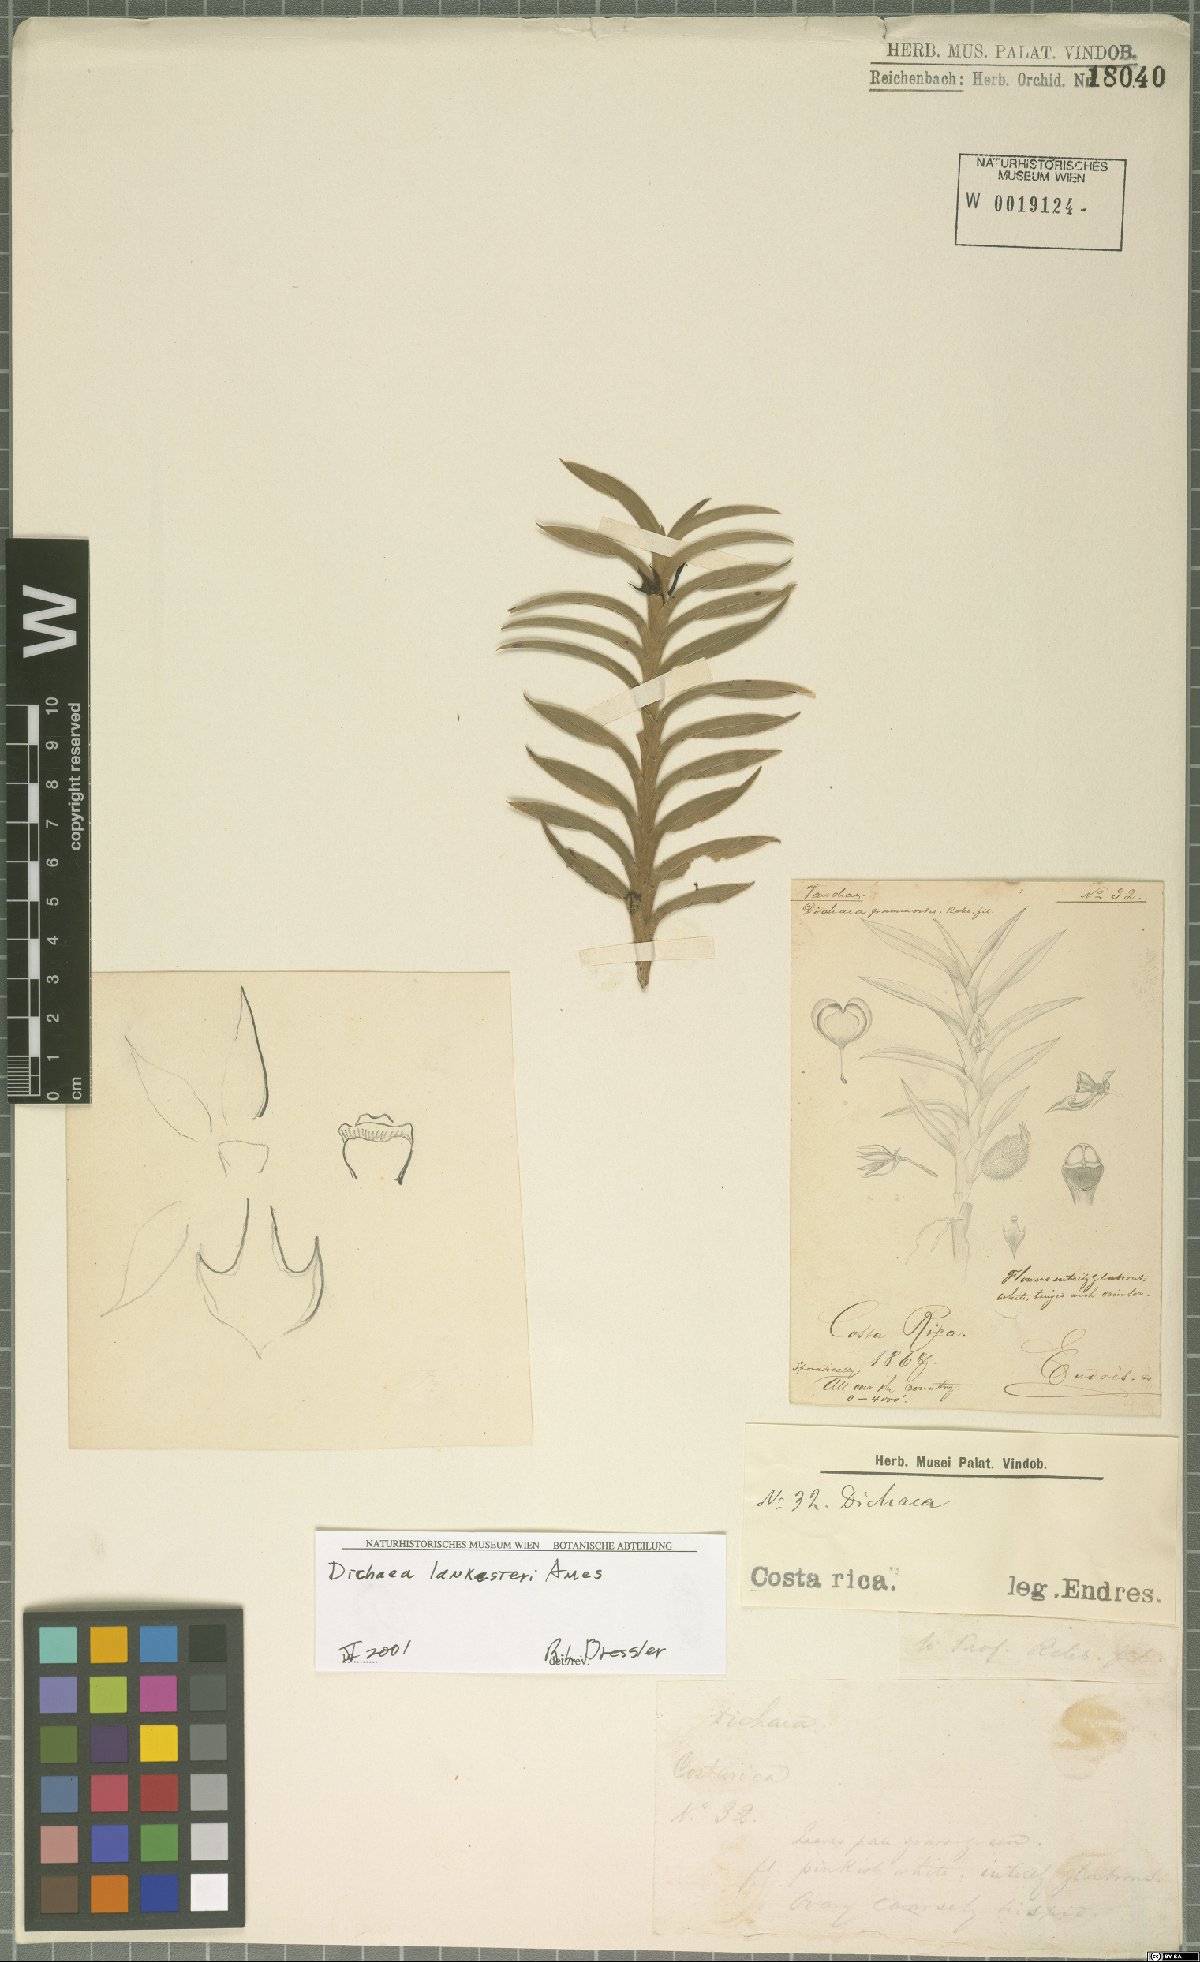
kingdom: Plantae
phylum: Tracheophyta
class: Liliopsida
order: Asparagales
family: Orchidaceae
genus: Dichaea
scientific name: Dichaea lankesteri
